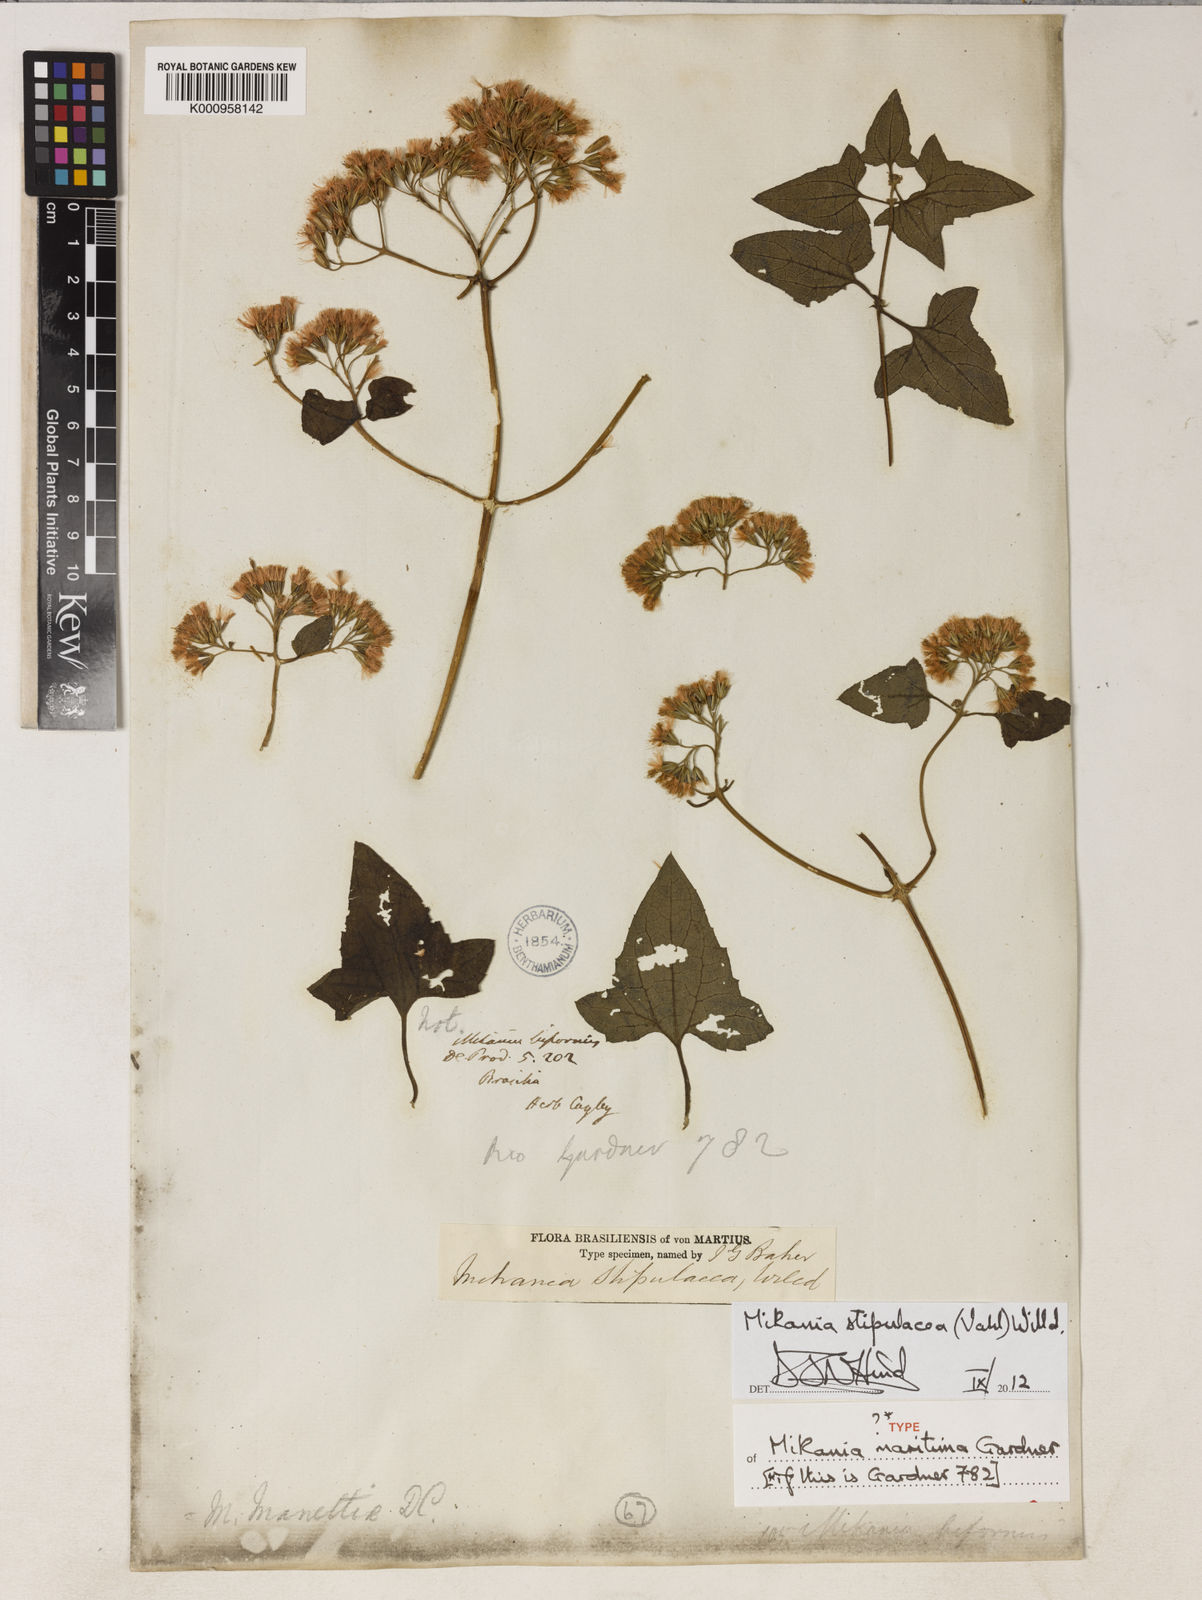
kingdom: Plantae
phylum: Tracheophyta
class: Magnoliopsida
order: Asterales
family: Asteraceae
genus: Mikania
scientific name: Mikania stipulacea
